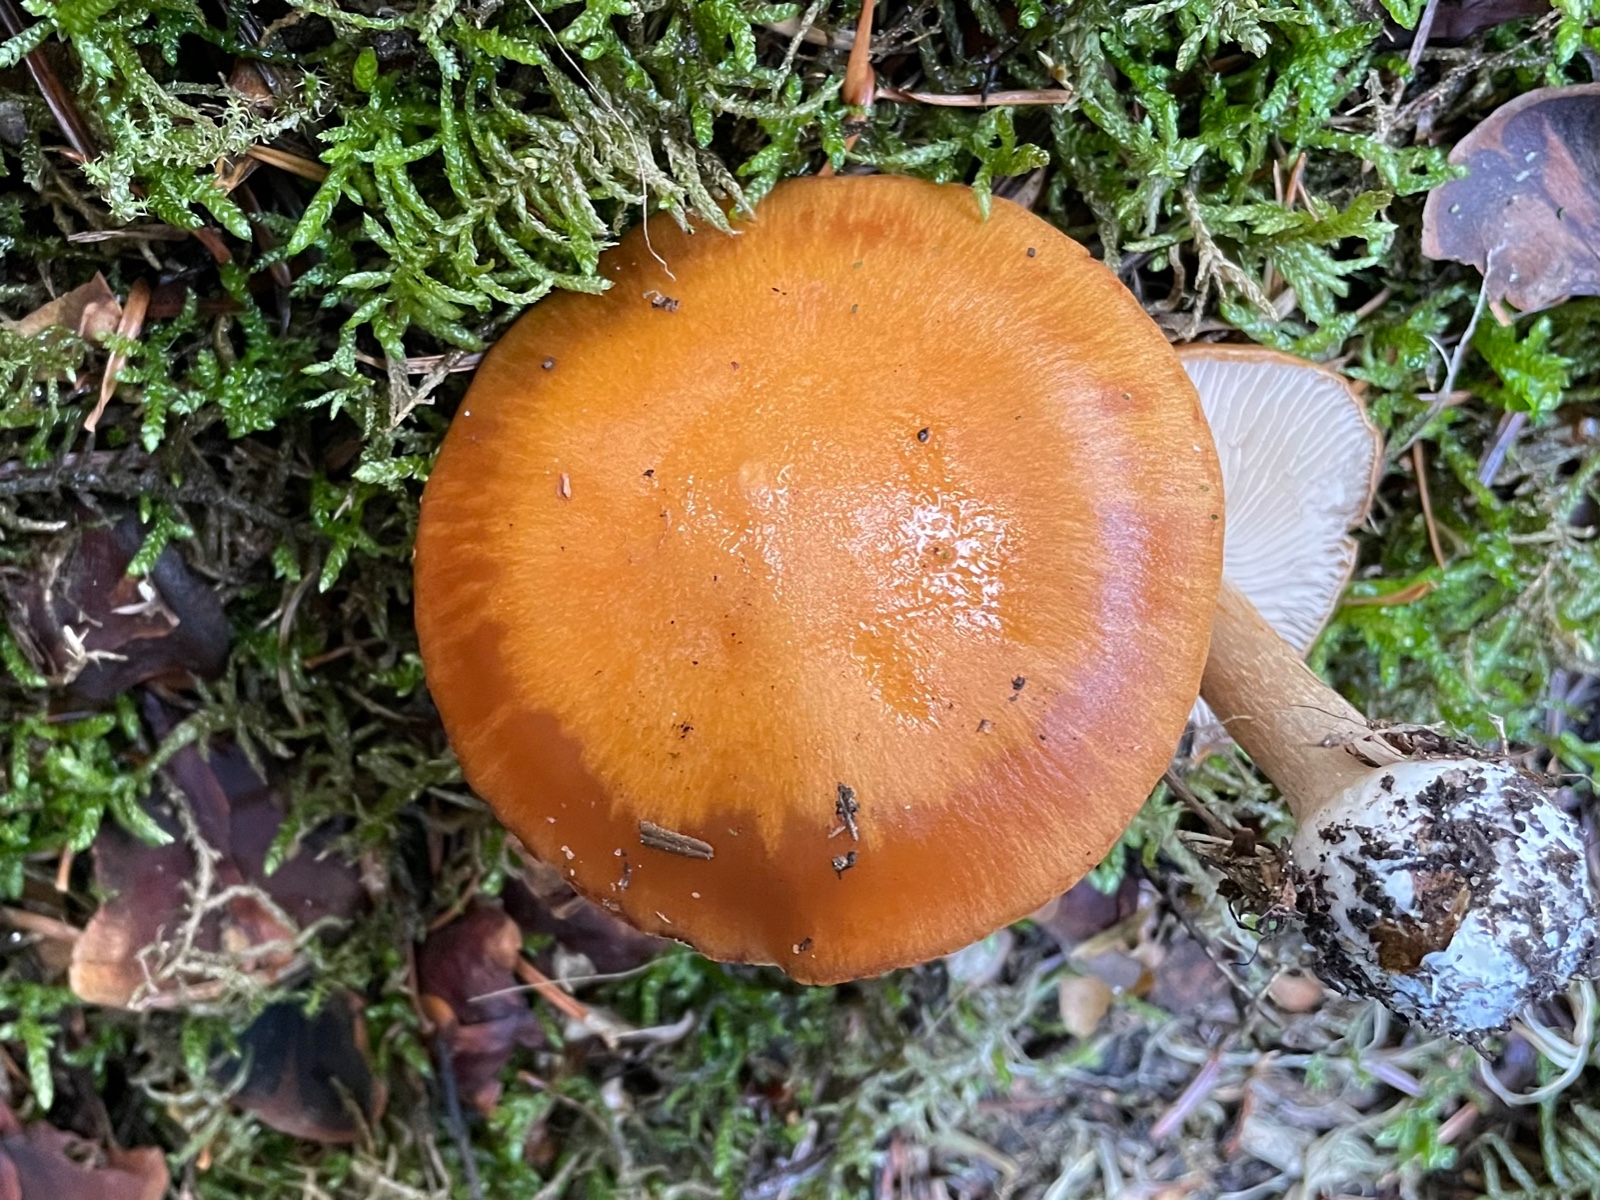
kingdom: Fungi
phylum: Basidiomycota
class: Agaricomycetes
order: Agaricales
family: Cortinariaceae
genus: Thaxterogaster
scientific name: Thaxterogaster multiformis
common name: honning-slørhat
